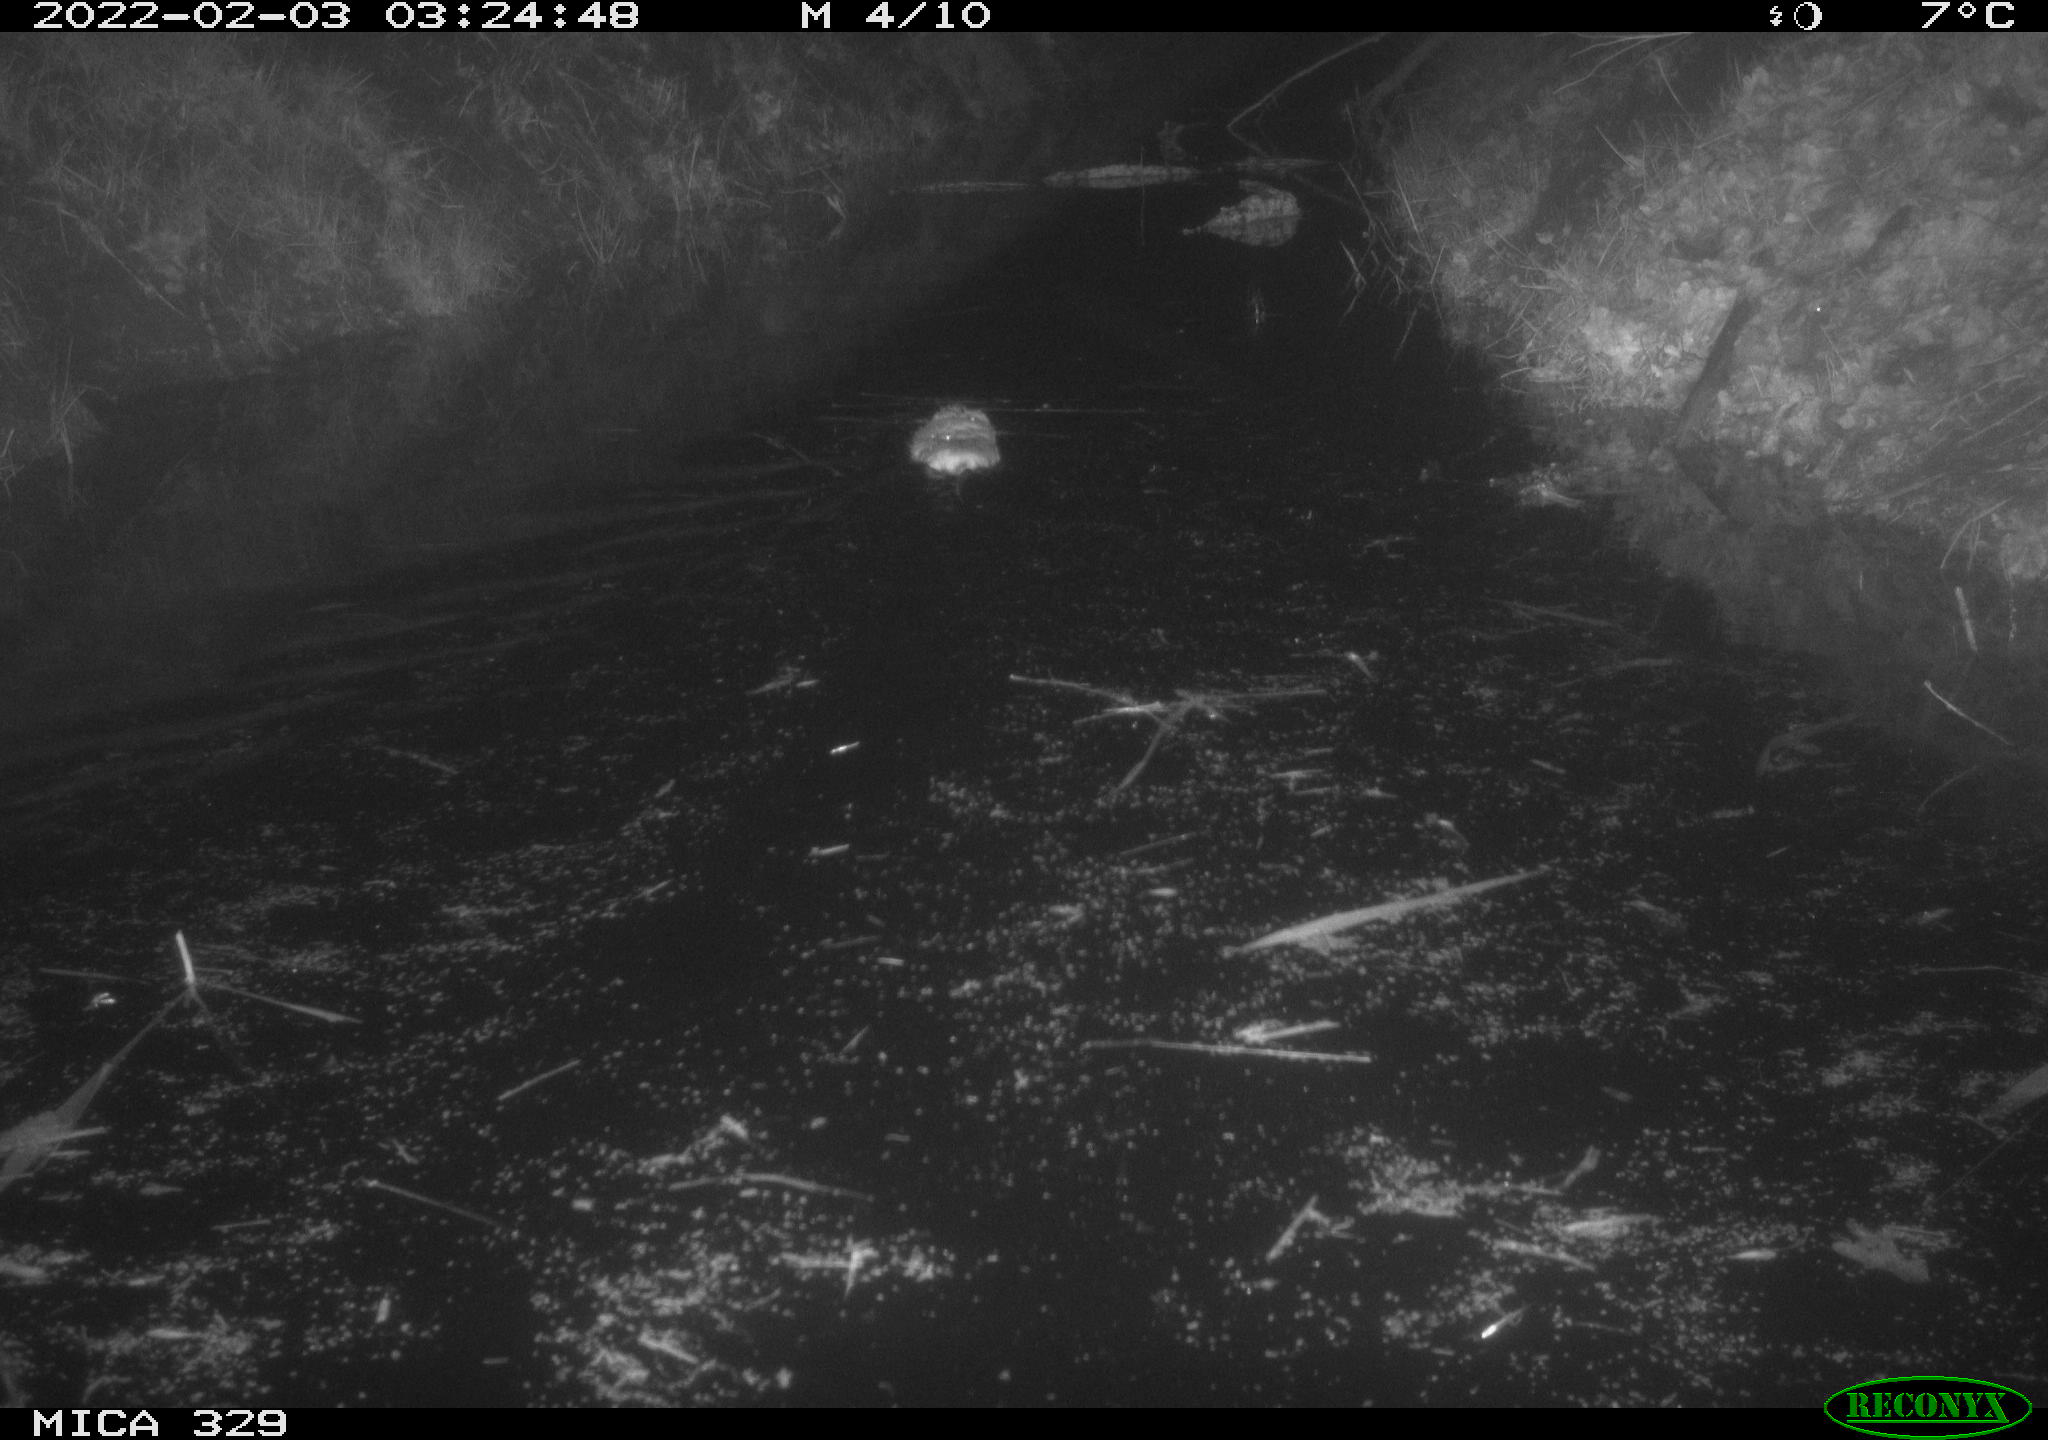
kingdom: Animalia
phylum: Chordata
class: Mammalia
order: Rodentia
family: Cricetidae
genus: Ondatra
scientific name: Ondatra zibethicus
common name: Muskrat
